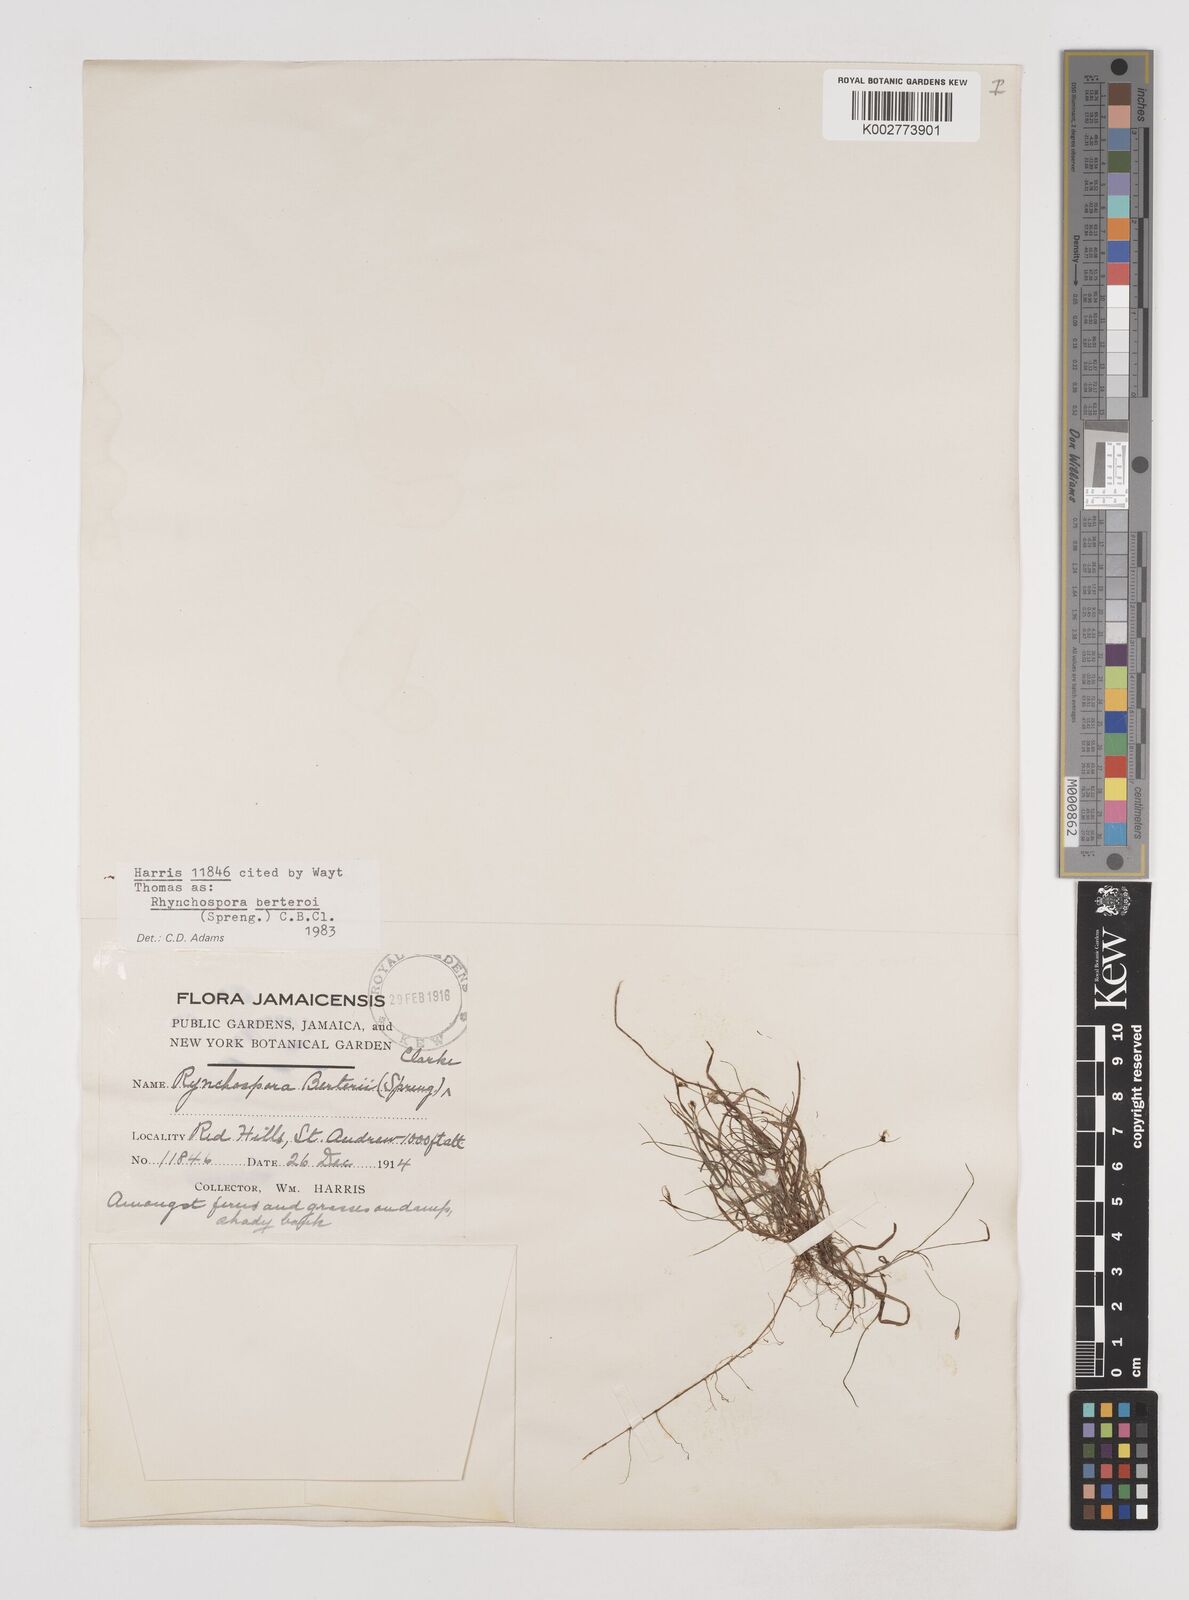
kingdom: Plantae
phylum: Tracheophyta
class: Liliopsida
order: Poales
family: Cyperaceae
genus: Rhynchospora
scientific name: Rhynchospora berteroi
